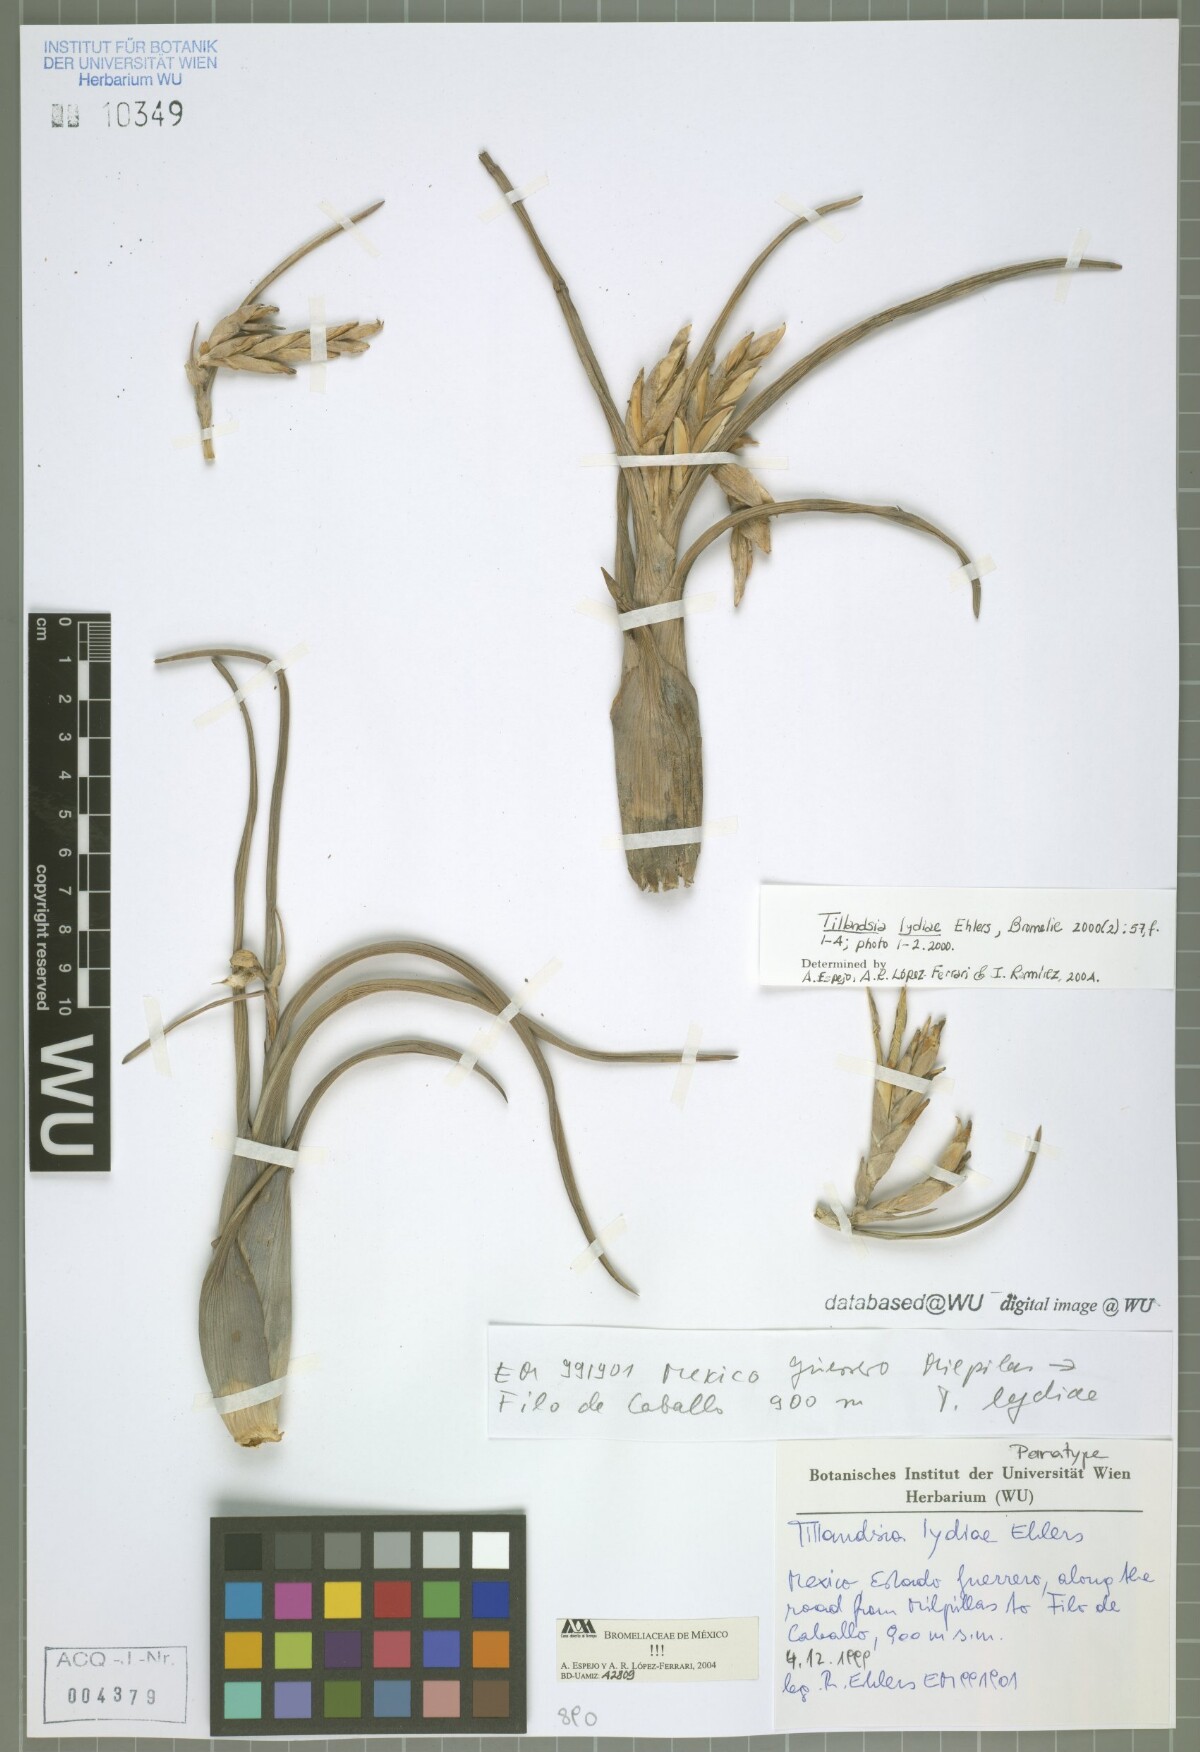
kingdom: Plantae
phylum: Tracheophyta
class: Liliopsida
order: Poales
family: Bromeliaceae
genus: Tillandsia
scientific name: Tillandsia lydiae
